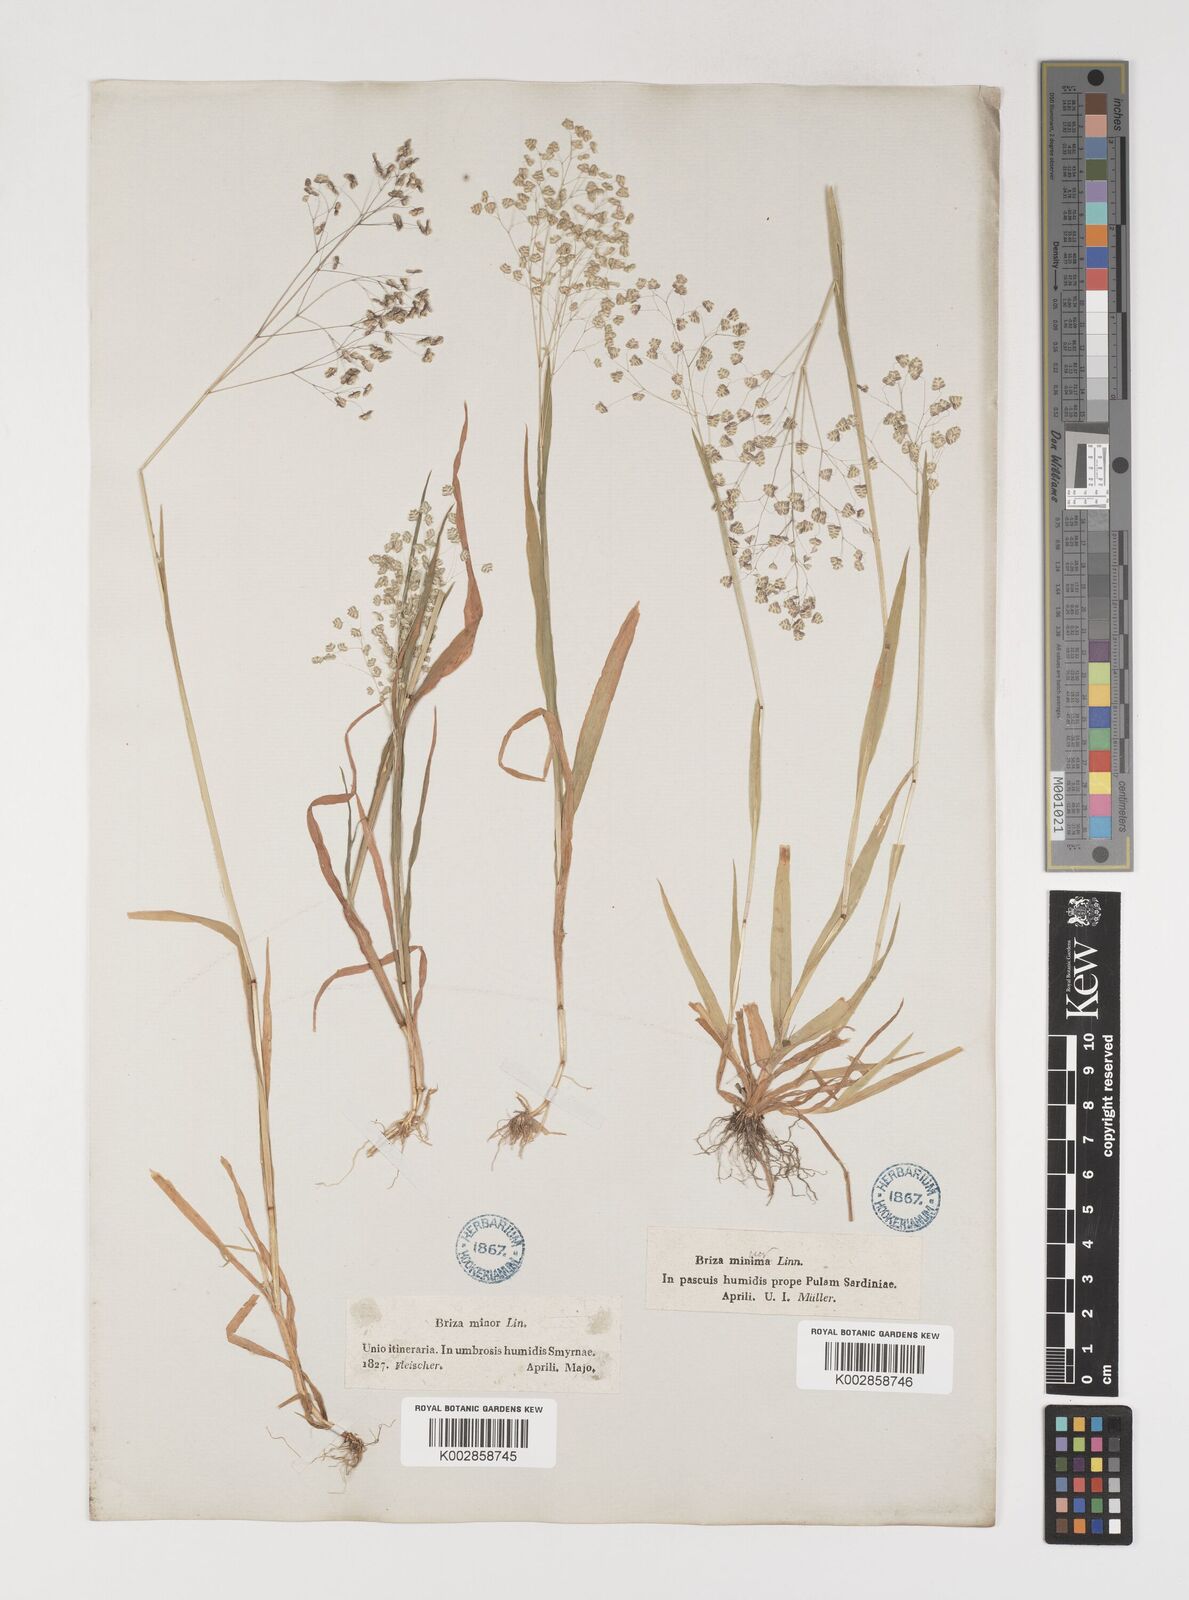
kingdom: Plantae
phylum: Tracheophyta
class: Liliopsida
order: Poales
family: Poaceae
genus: Briza
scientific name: Briza minor
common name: Lesser quaking-grass
